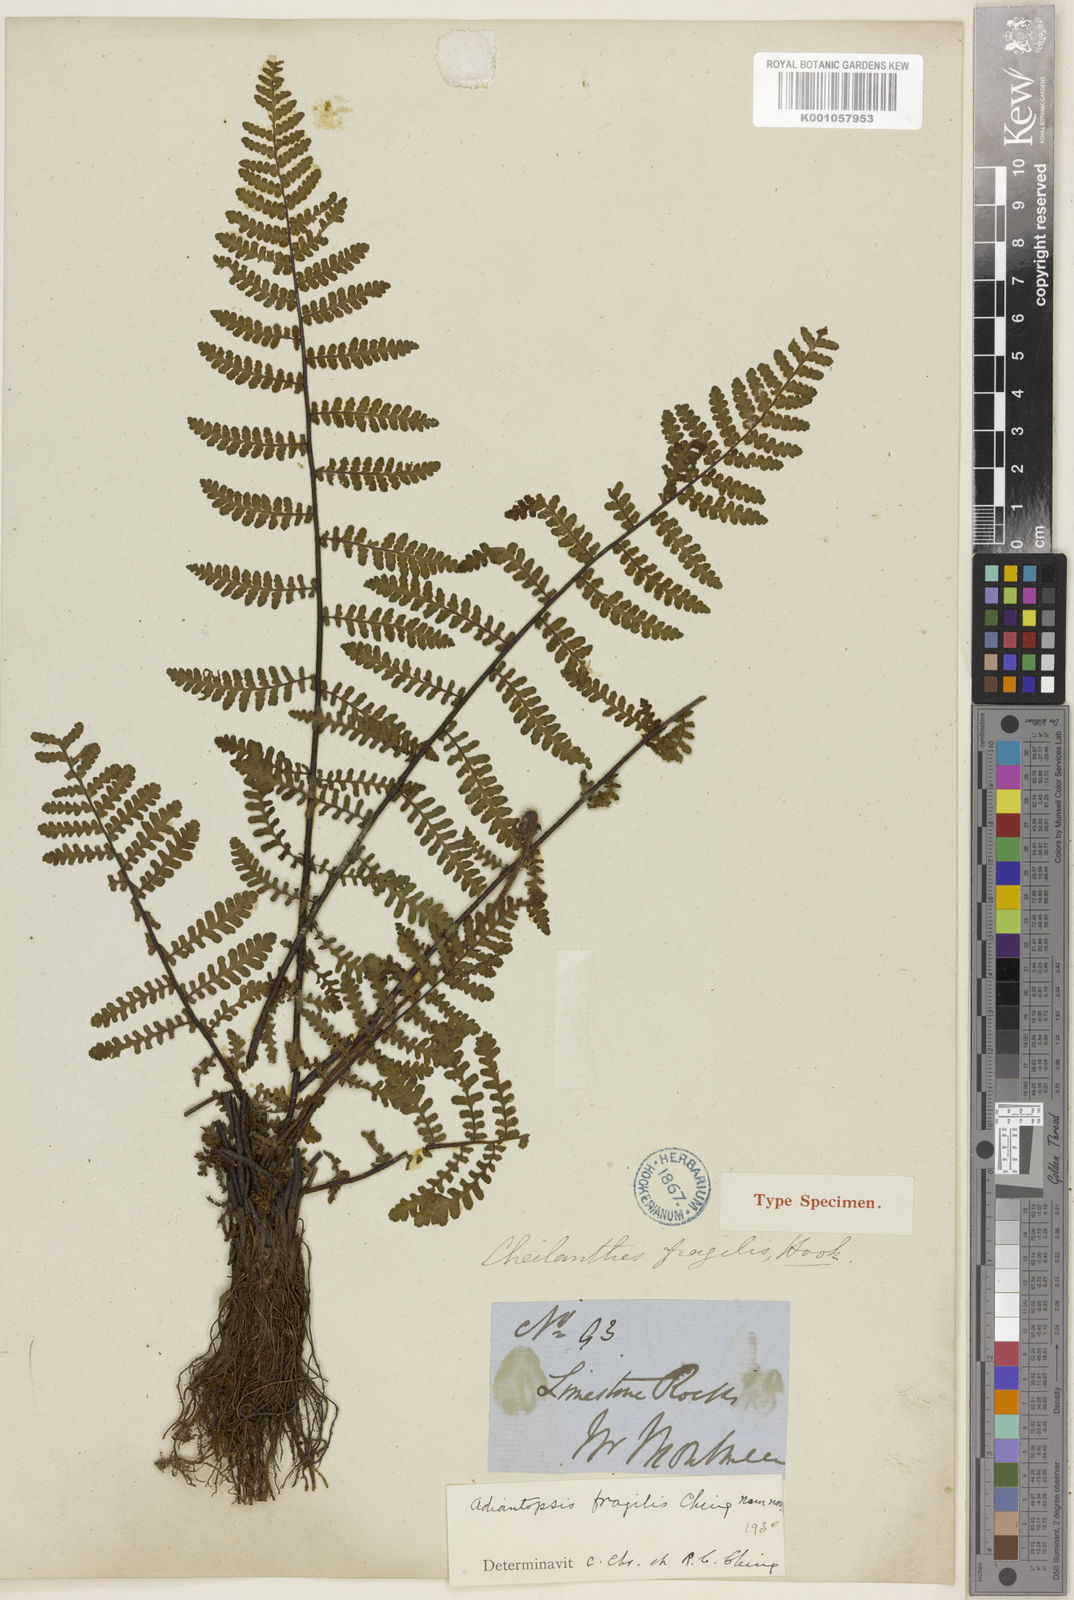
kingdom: Plantae
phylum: Tracheophyta
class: Polypodiopsida
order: Polypodiales
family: Pteridaceae
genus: Oeosporangium
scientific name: Oeosporangium fragile
